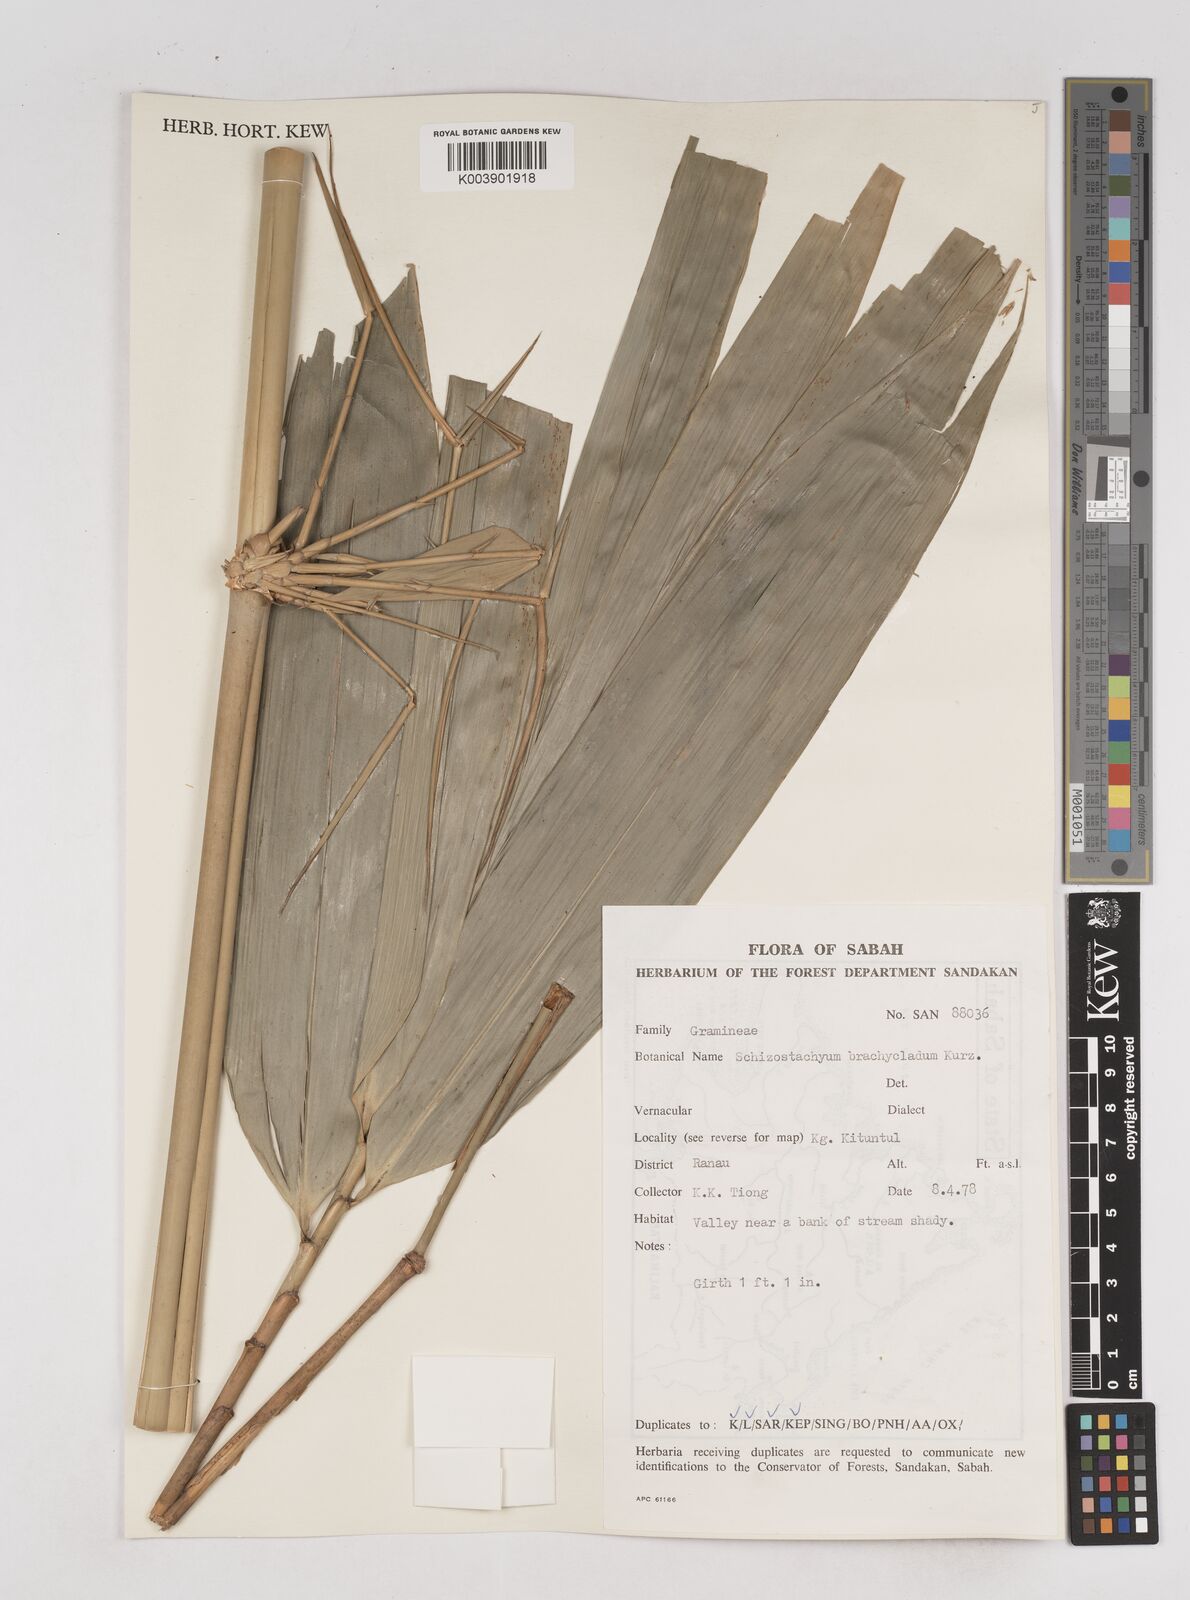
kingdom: Plantae
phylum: Tracheophyta
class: Liliopsida
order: Poales
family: Poaceae
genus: Schizostachyum
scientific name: Schizostachyum brachycladum
